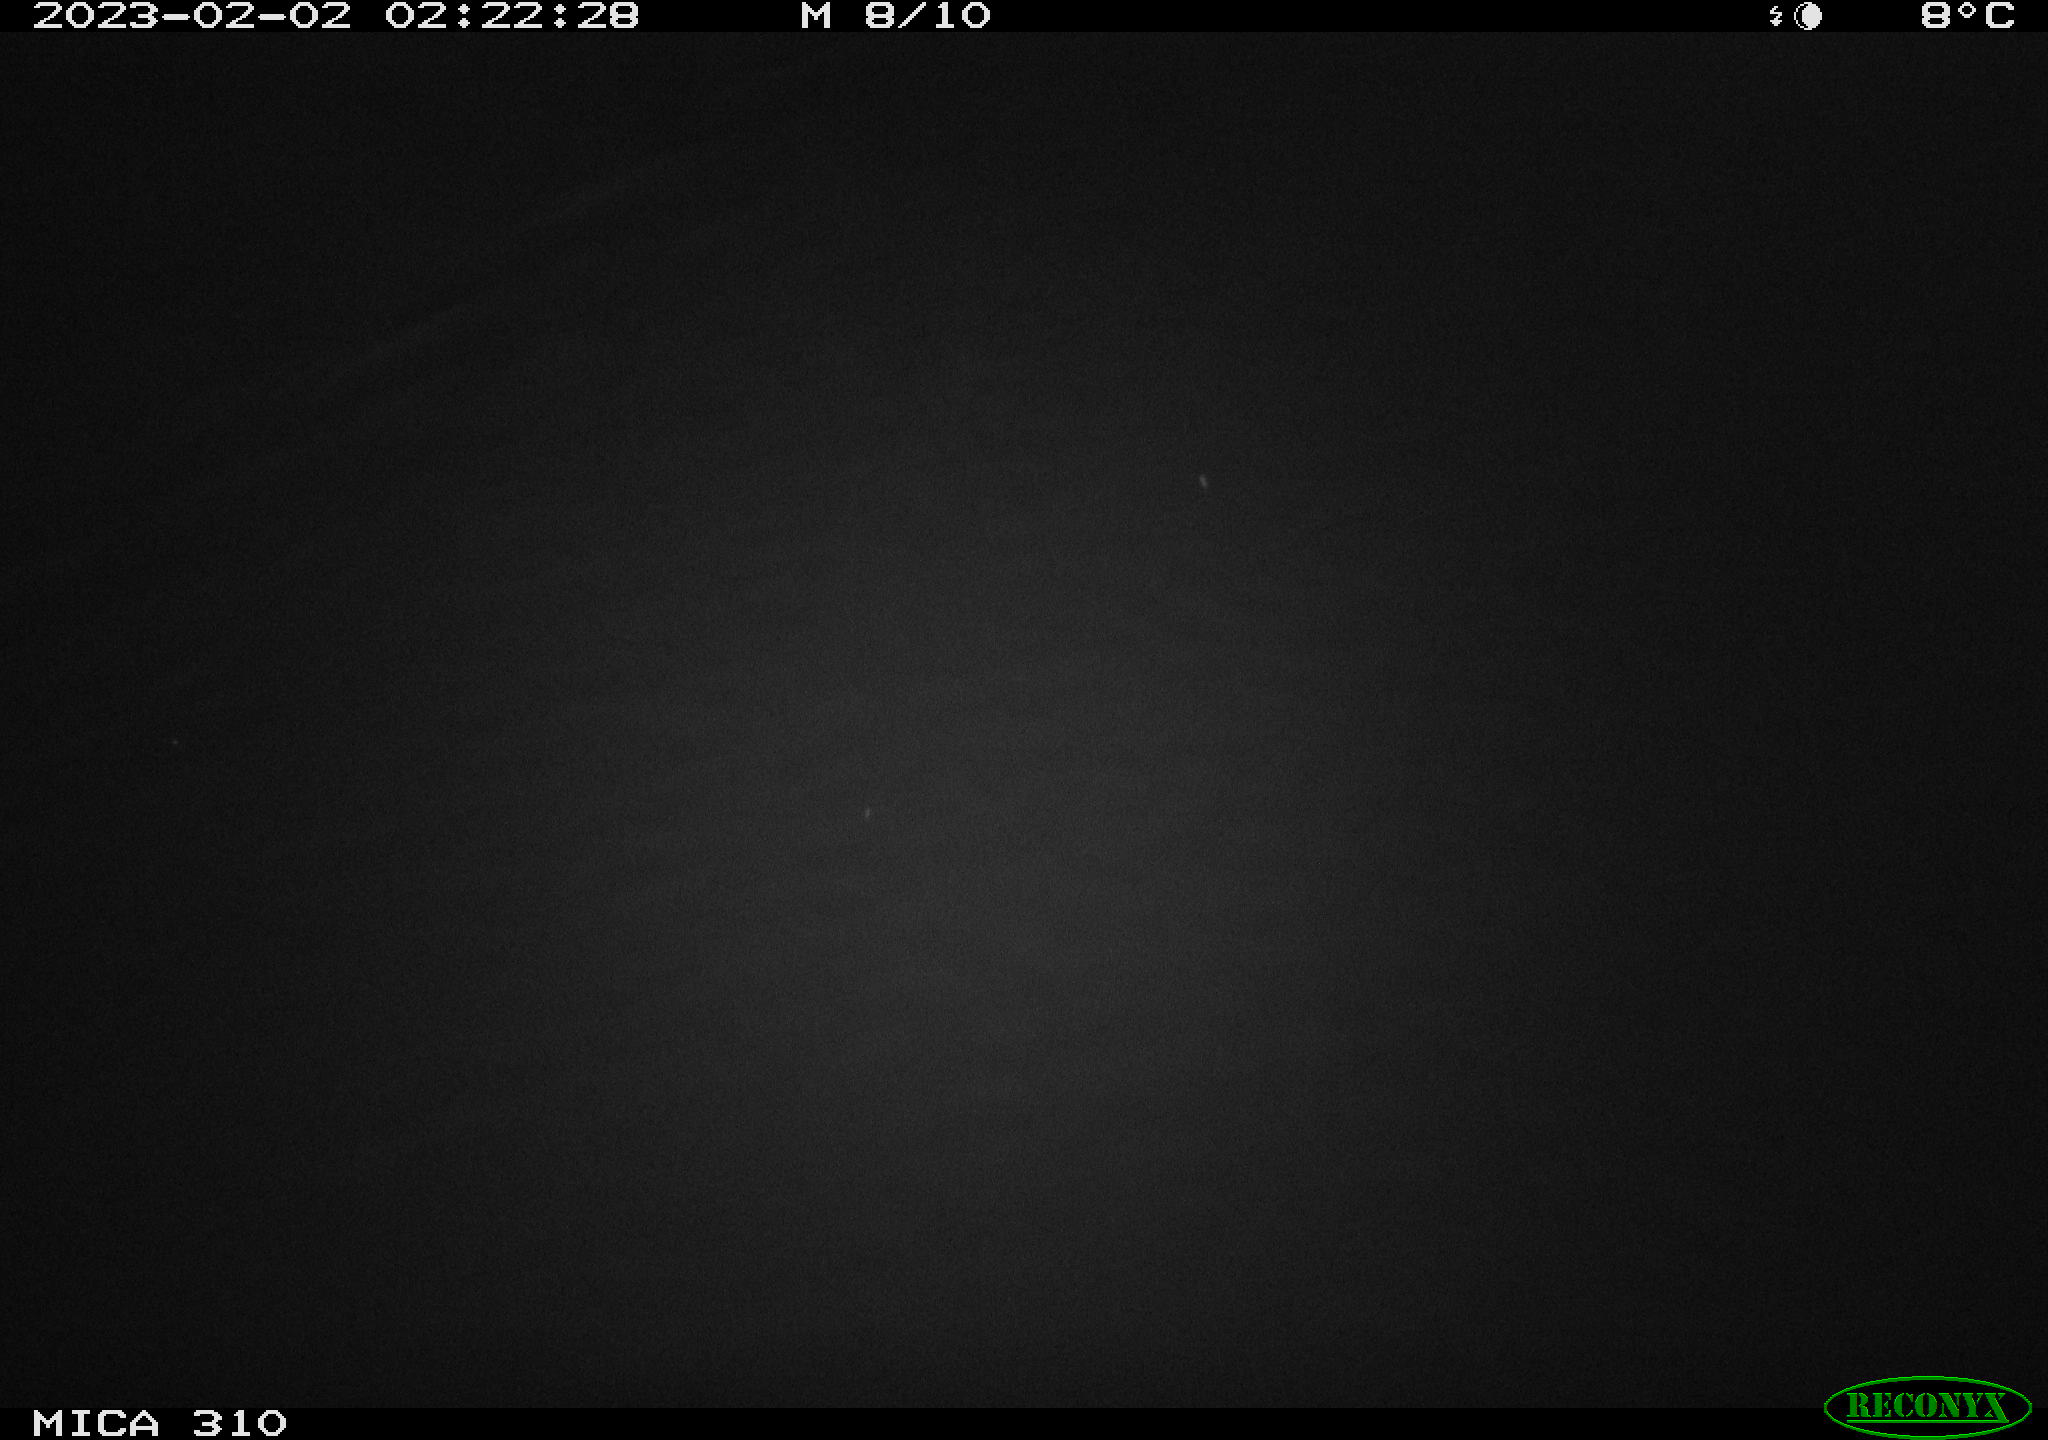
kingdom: Animalia
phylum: Chordata
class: Aves
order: Anseriformes
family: Anatidae
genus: Anas
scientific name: Anas
